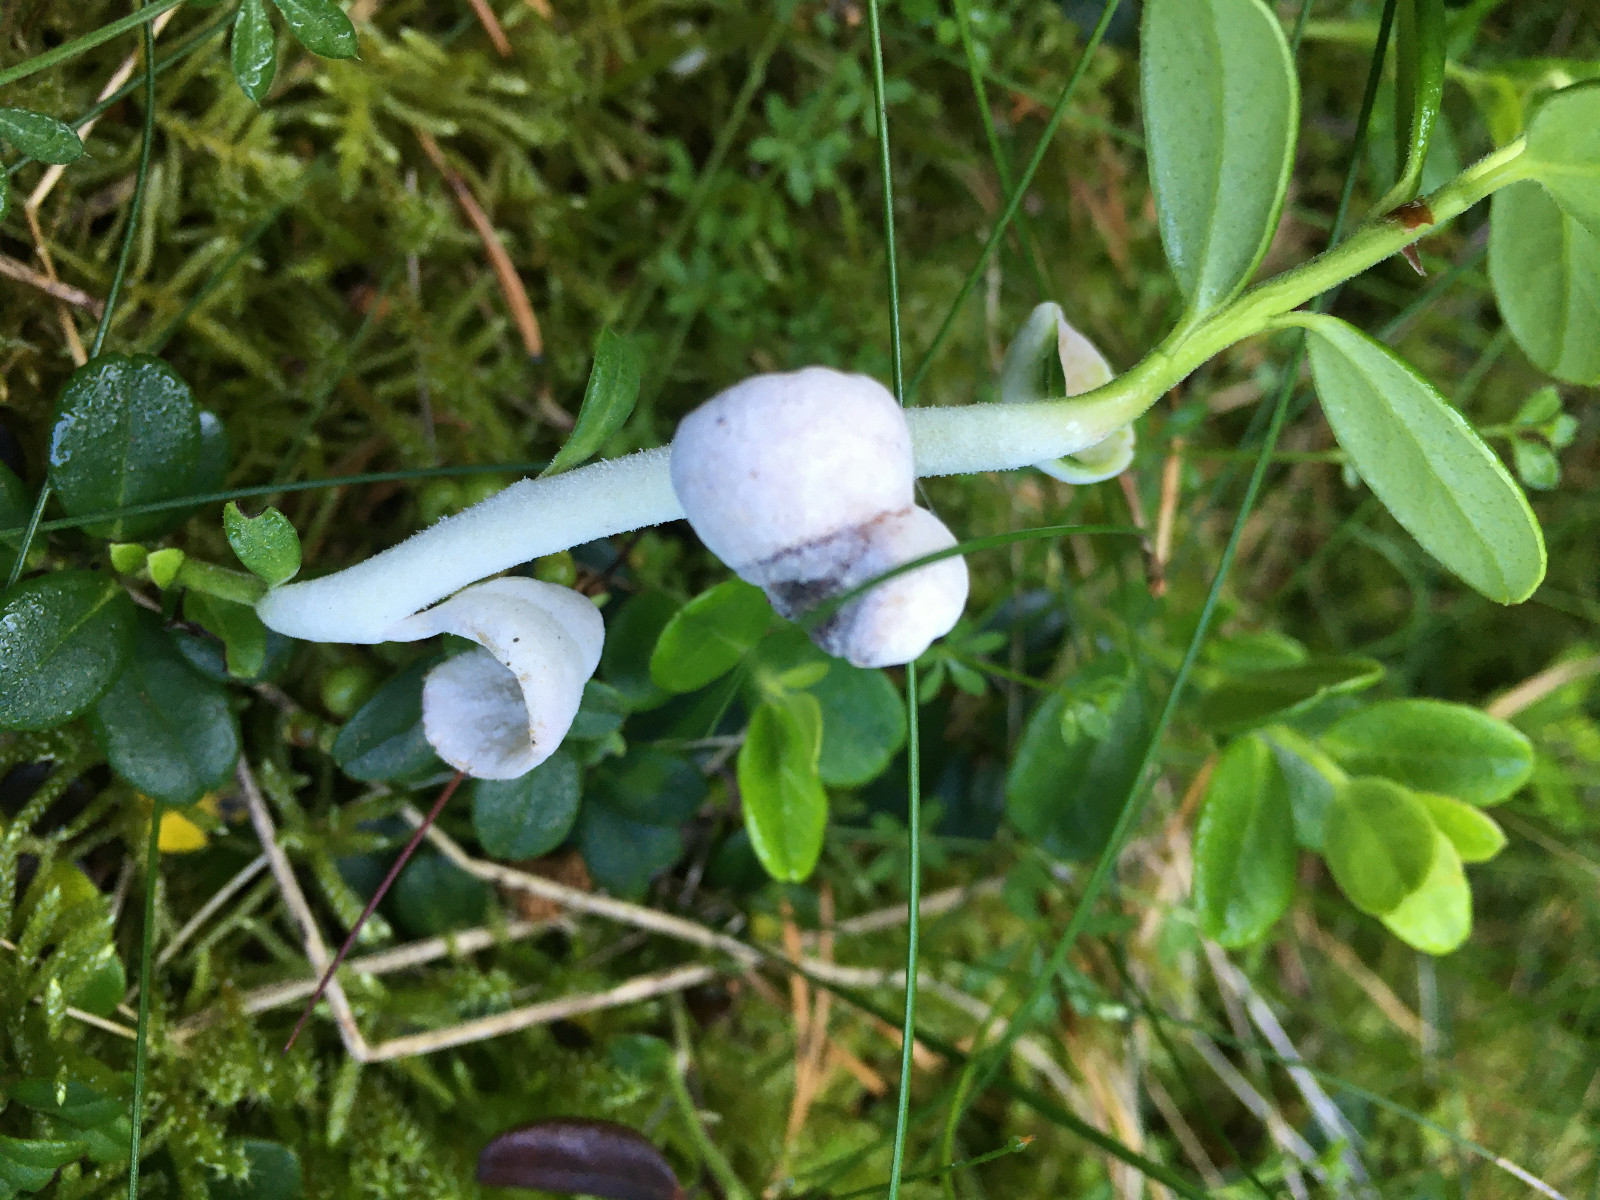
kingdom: Fungi
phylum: Basidiomycota
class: Exobasidiomycetes
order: Exobasidiales
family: Exobasidiaceae
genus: Exobasidium
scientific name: Exobasidium vaccinii
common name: tyttebærblad-bøllesvamp
